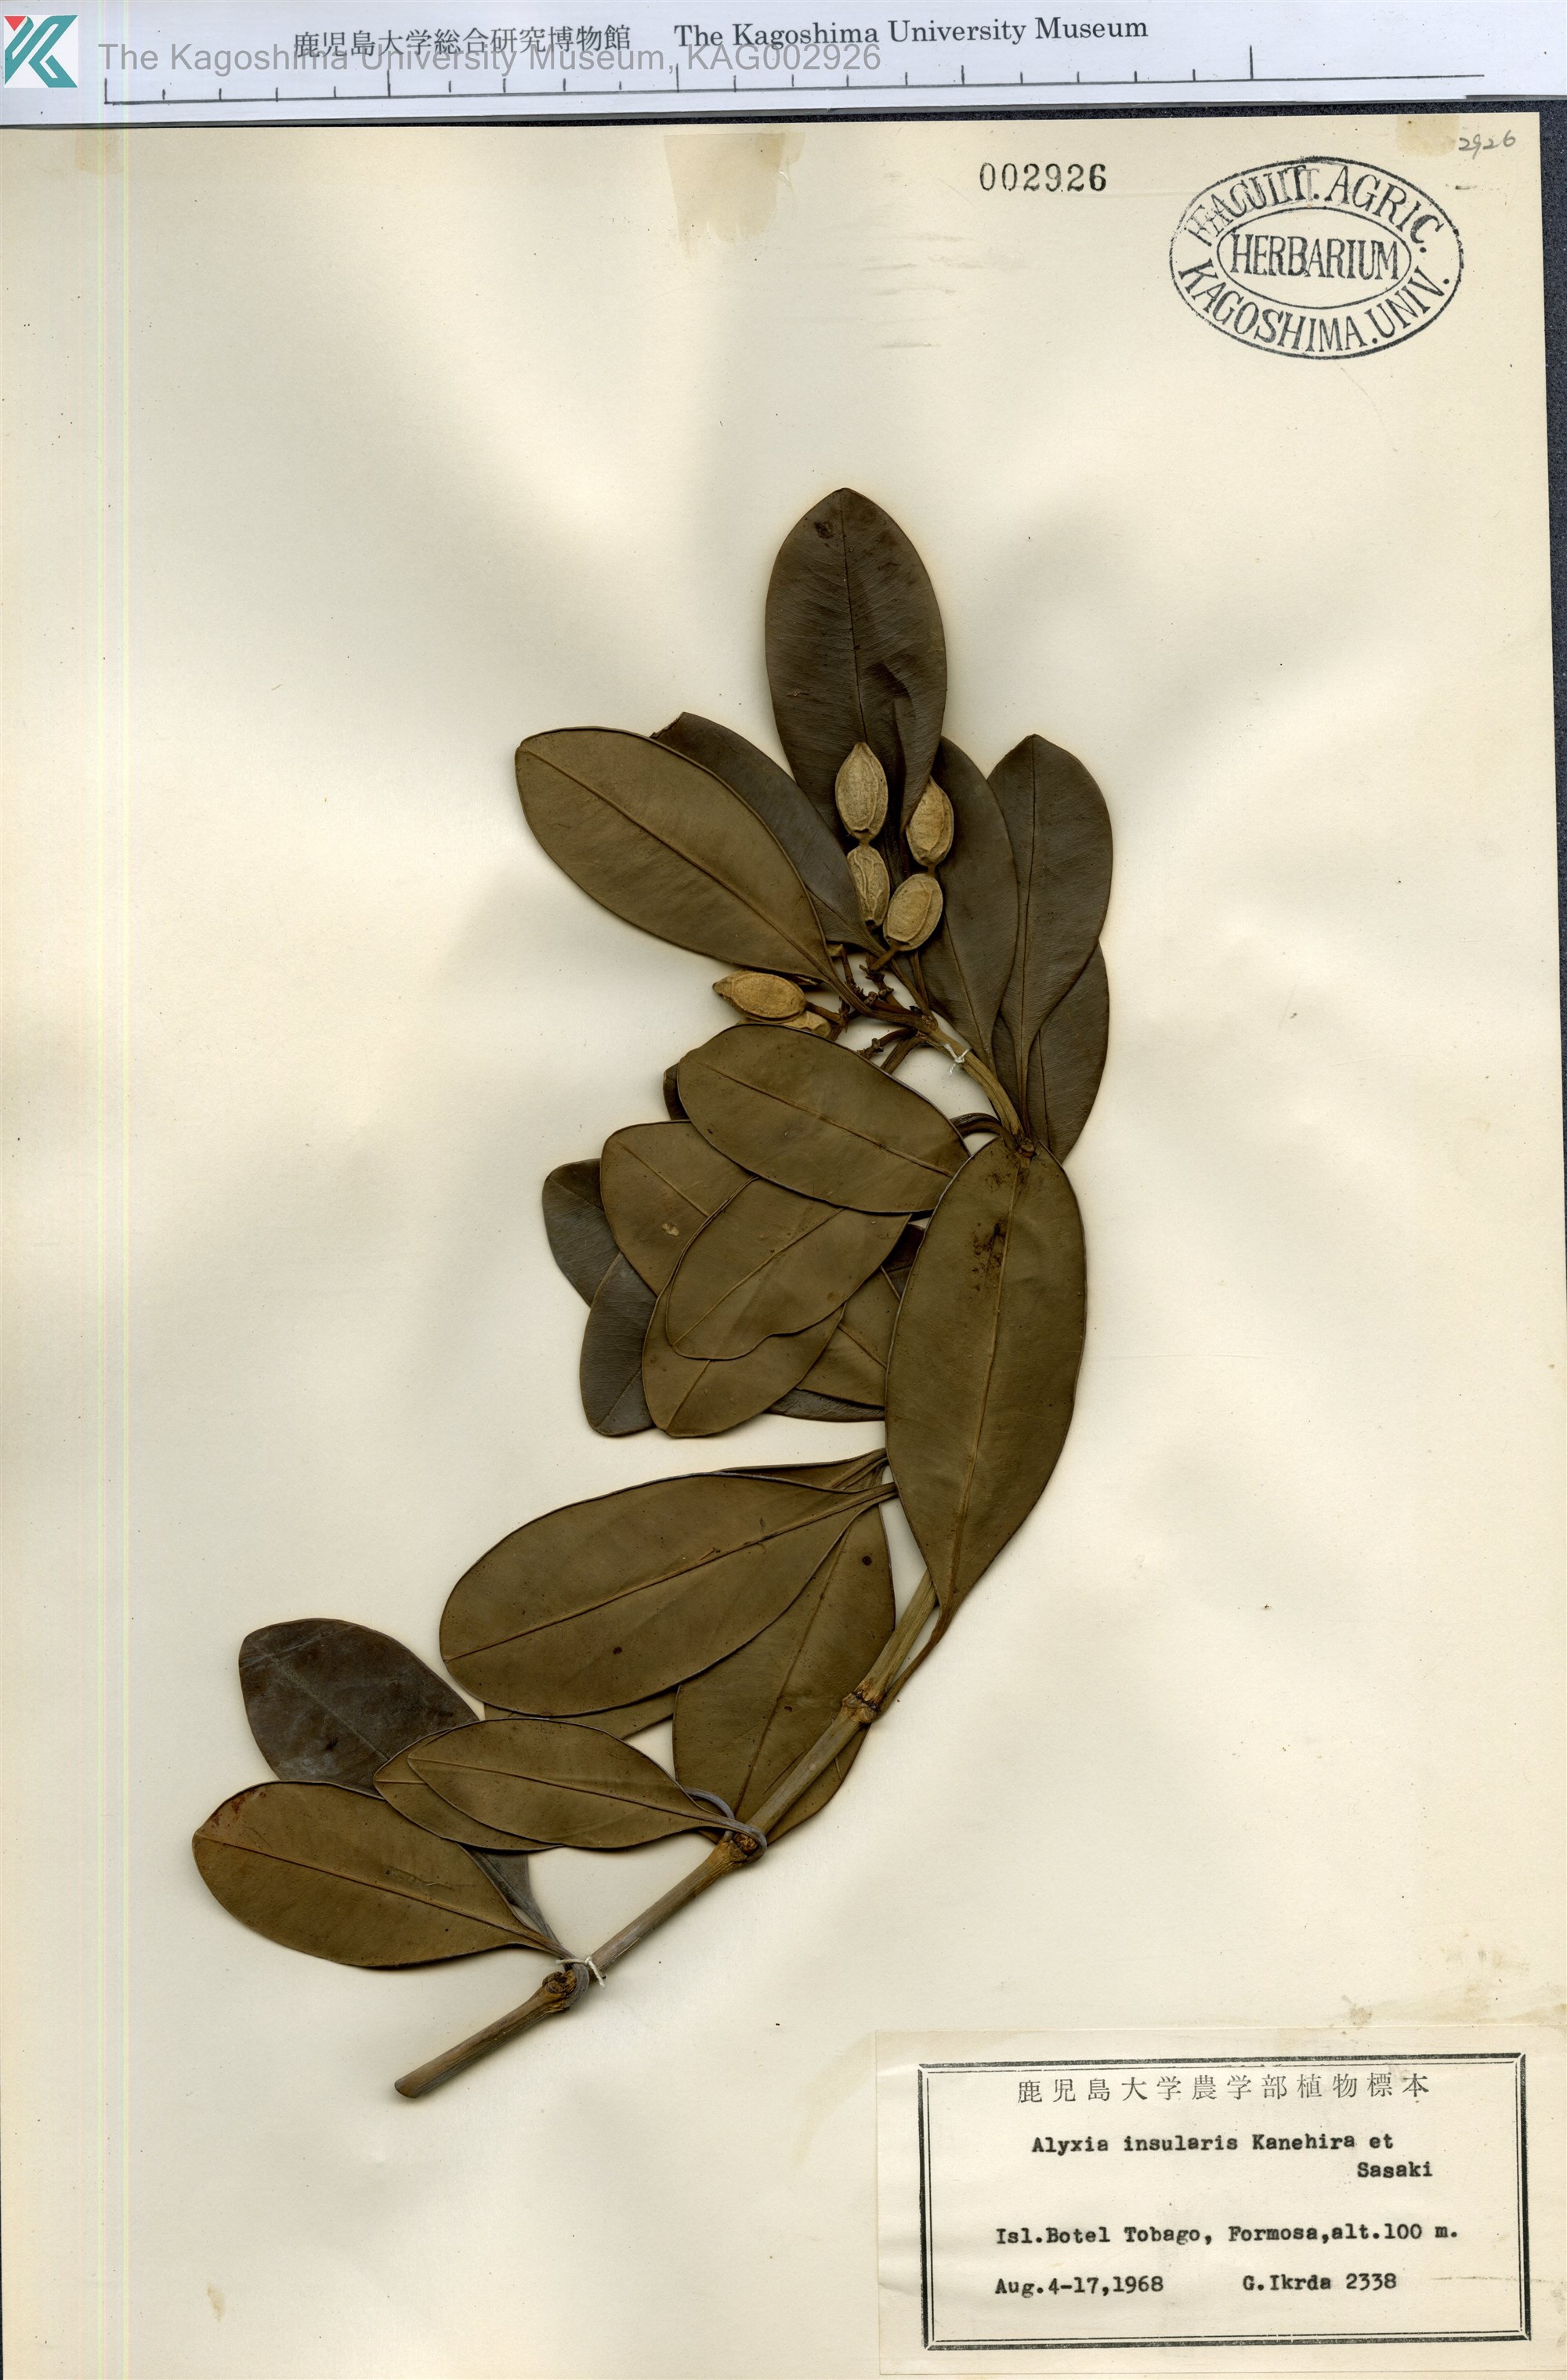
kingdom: Plantae
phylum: Tracheophyta
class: Magnoliopsida
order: Gentianales
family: Apocynaceae
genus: Alyxia
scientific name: Alyxia insularis
